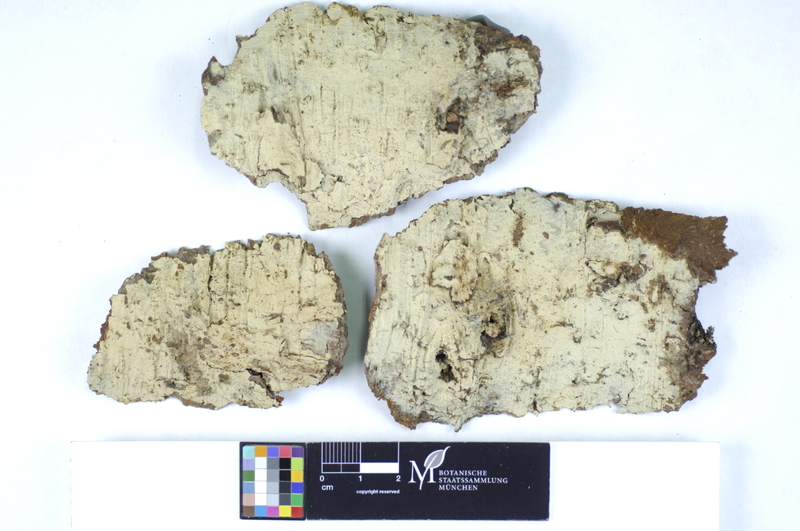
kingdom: Fungi
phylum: Basidiomycota
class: Agaricomycetes
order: Hymenochaetales
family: Hyphodontiaceae
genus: Hyphodontia
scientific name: Hyphodontia alutaria
